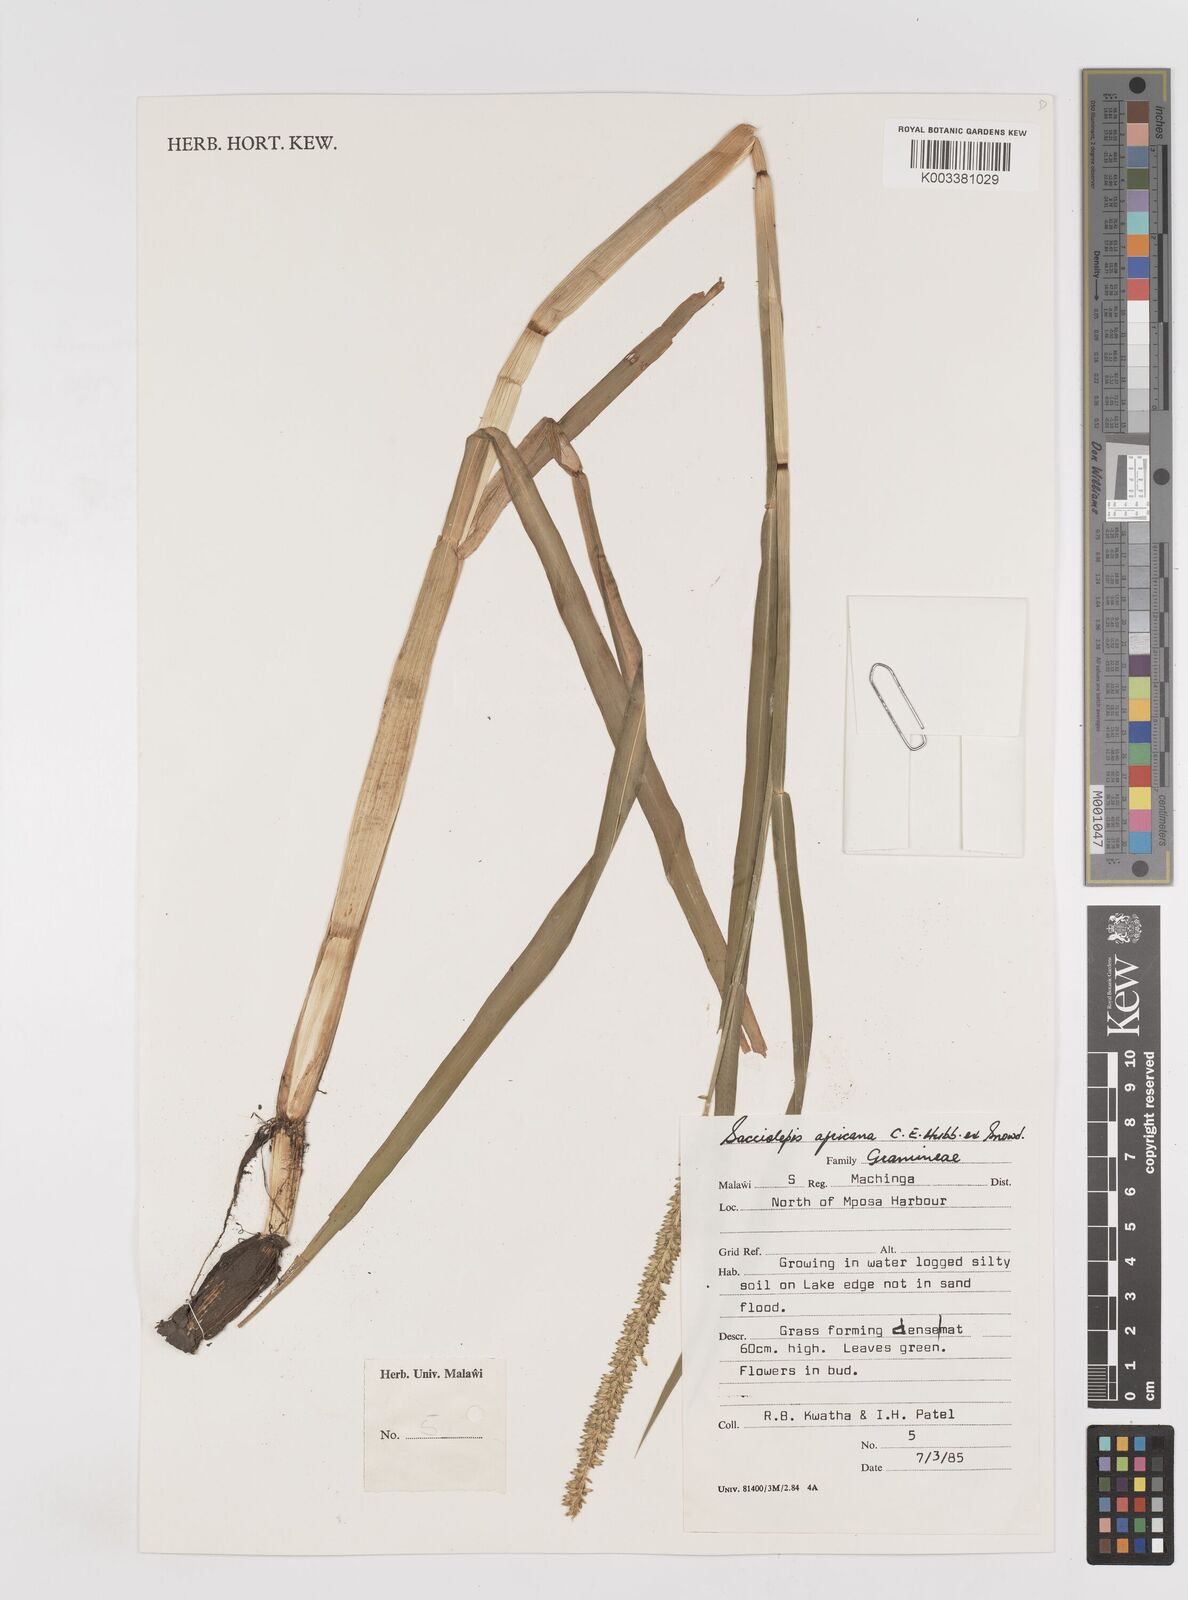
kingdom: Plantae
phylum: Tracheophyta
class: Liliopsida
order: Poales
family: Poaceae
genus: Sacciolepis
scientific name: Sacciolepis africana
